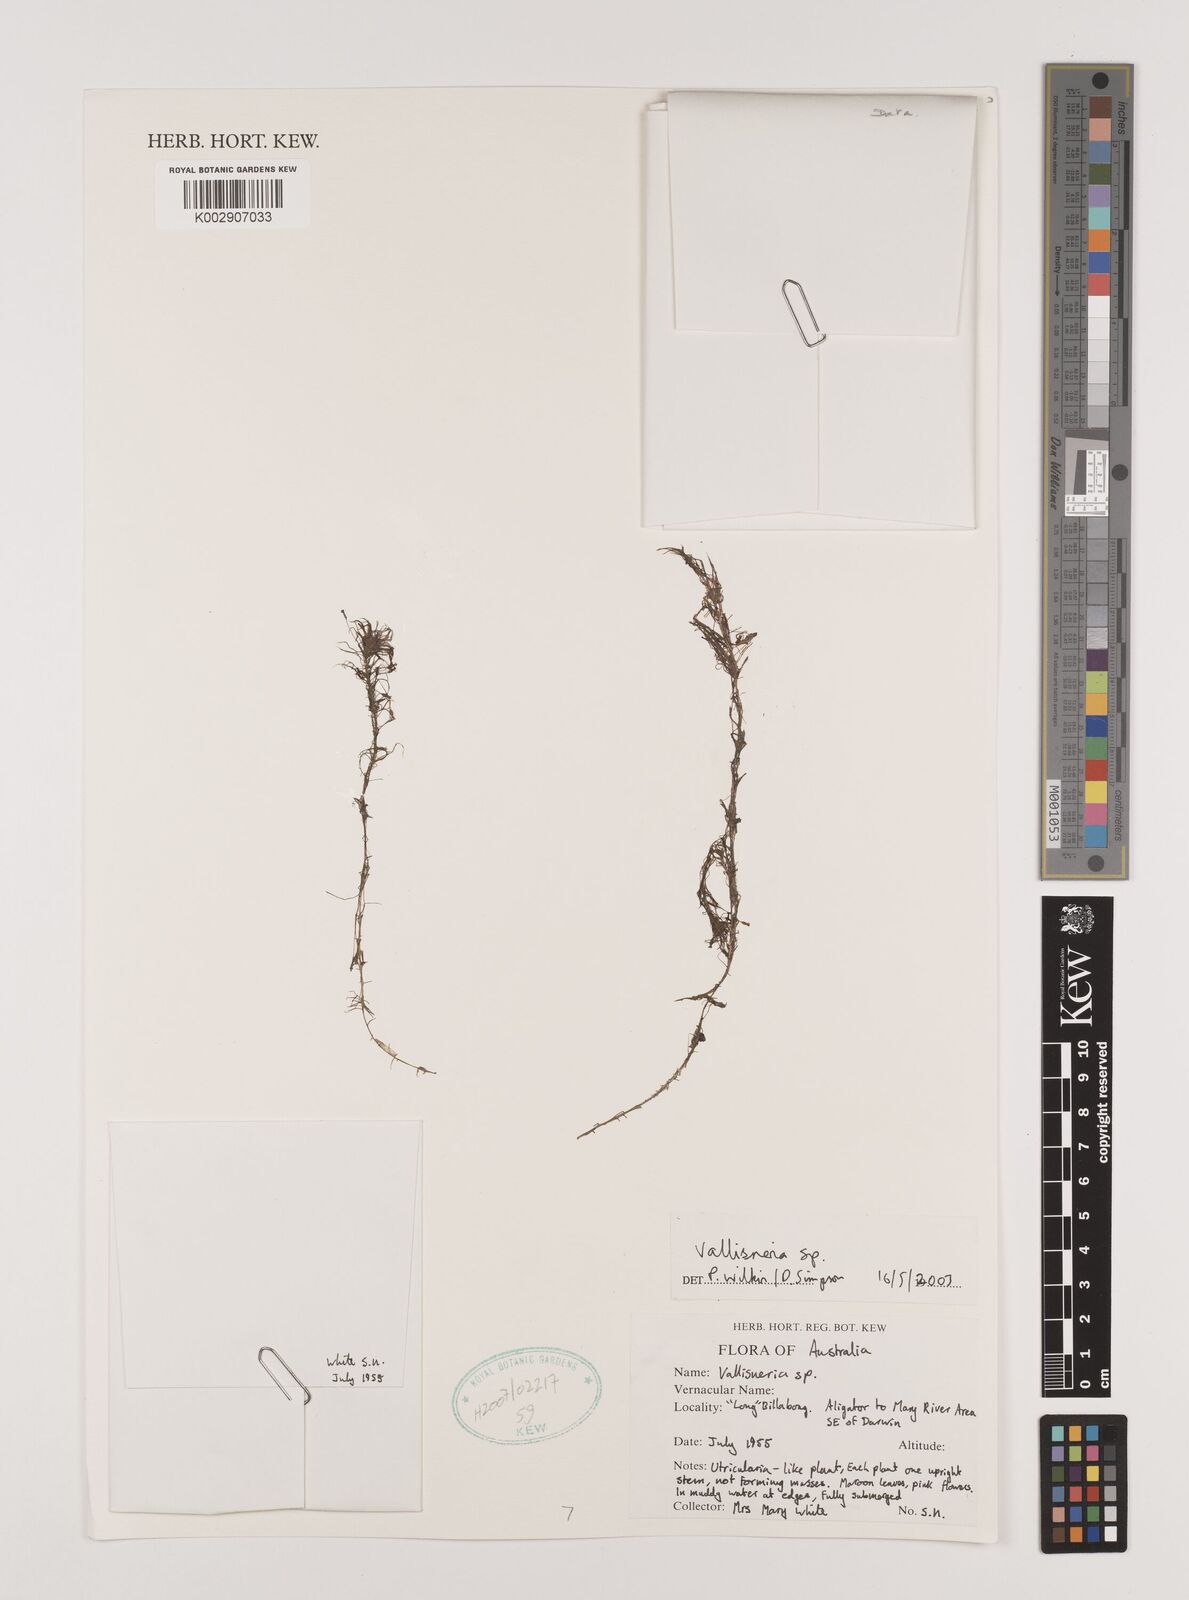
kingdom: Plantae
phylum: Tracheophyta
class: Liliopsida
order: Alismatales
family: Hydrocharitaceae
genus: Vallisneria
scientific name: Vallisneria
